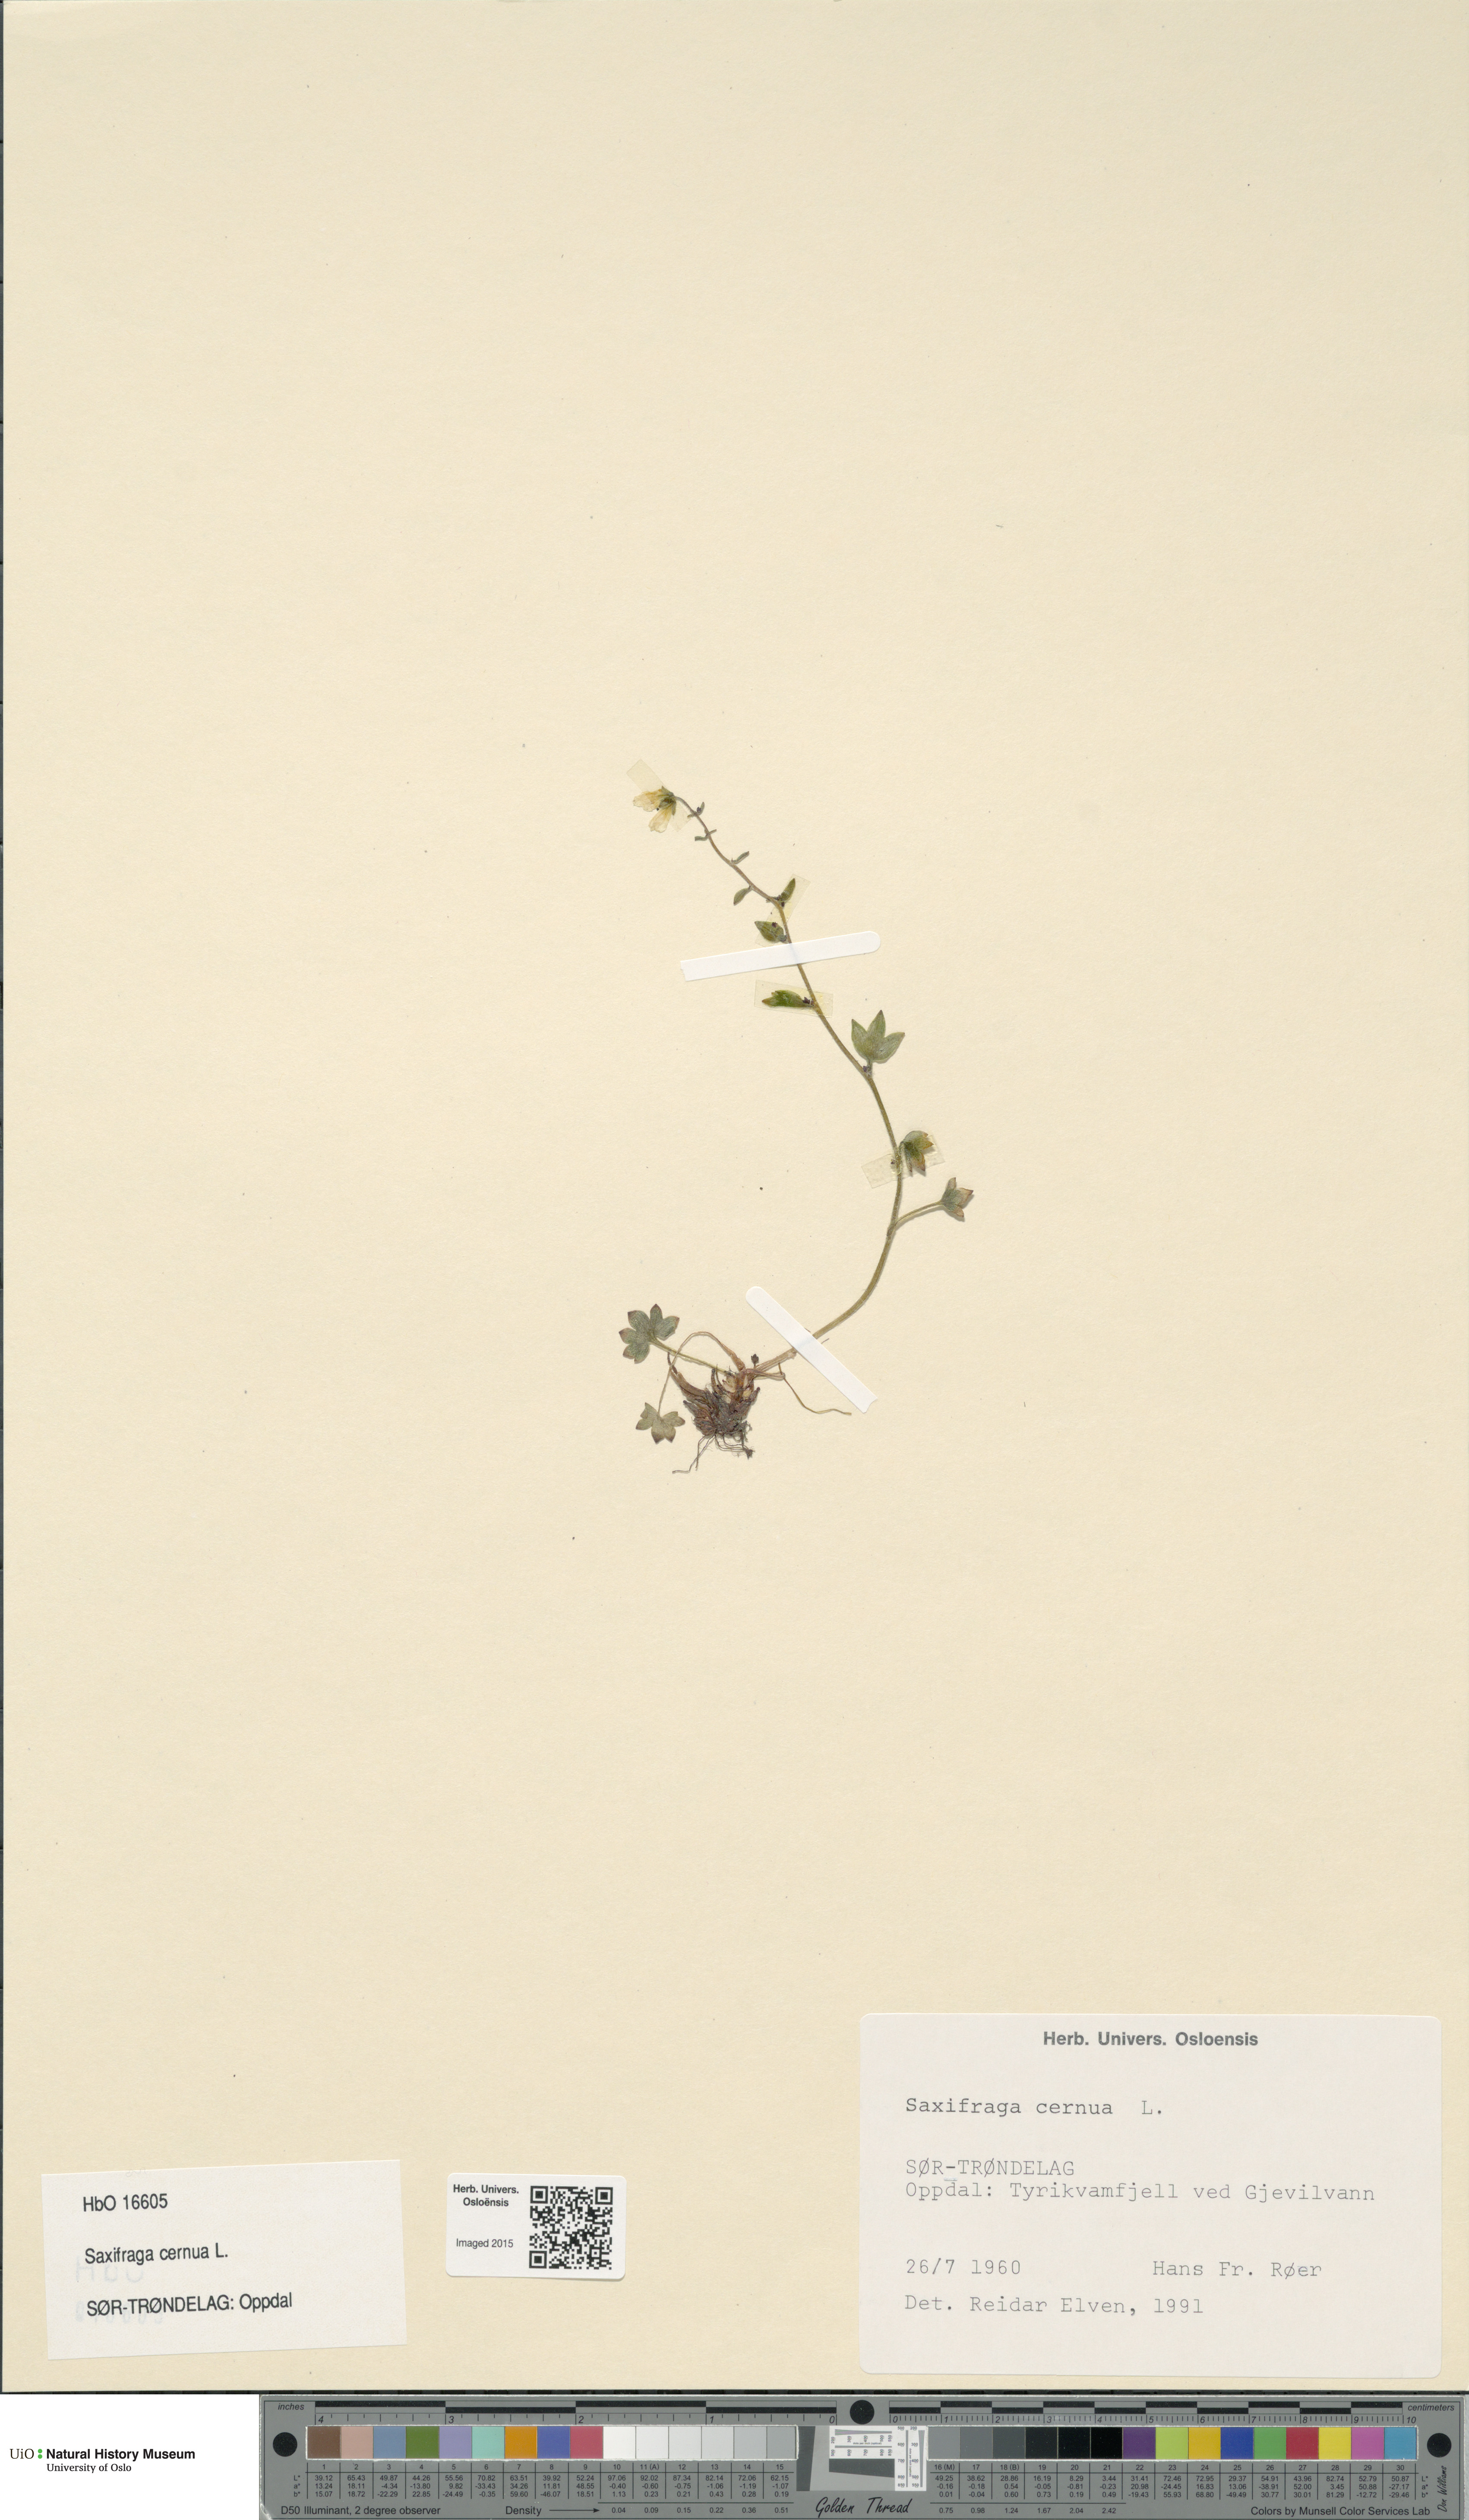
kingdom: Plantae
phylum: Tracheophyta
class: Magnoliopsida
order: Saxifragales
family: Saxifragaceae
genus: Saxifraga
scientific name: Saxifraga cernua
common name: Drooping saxifrage
